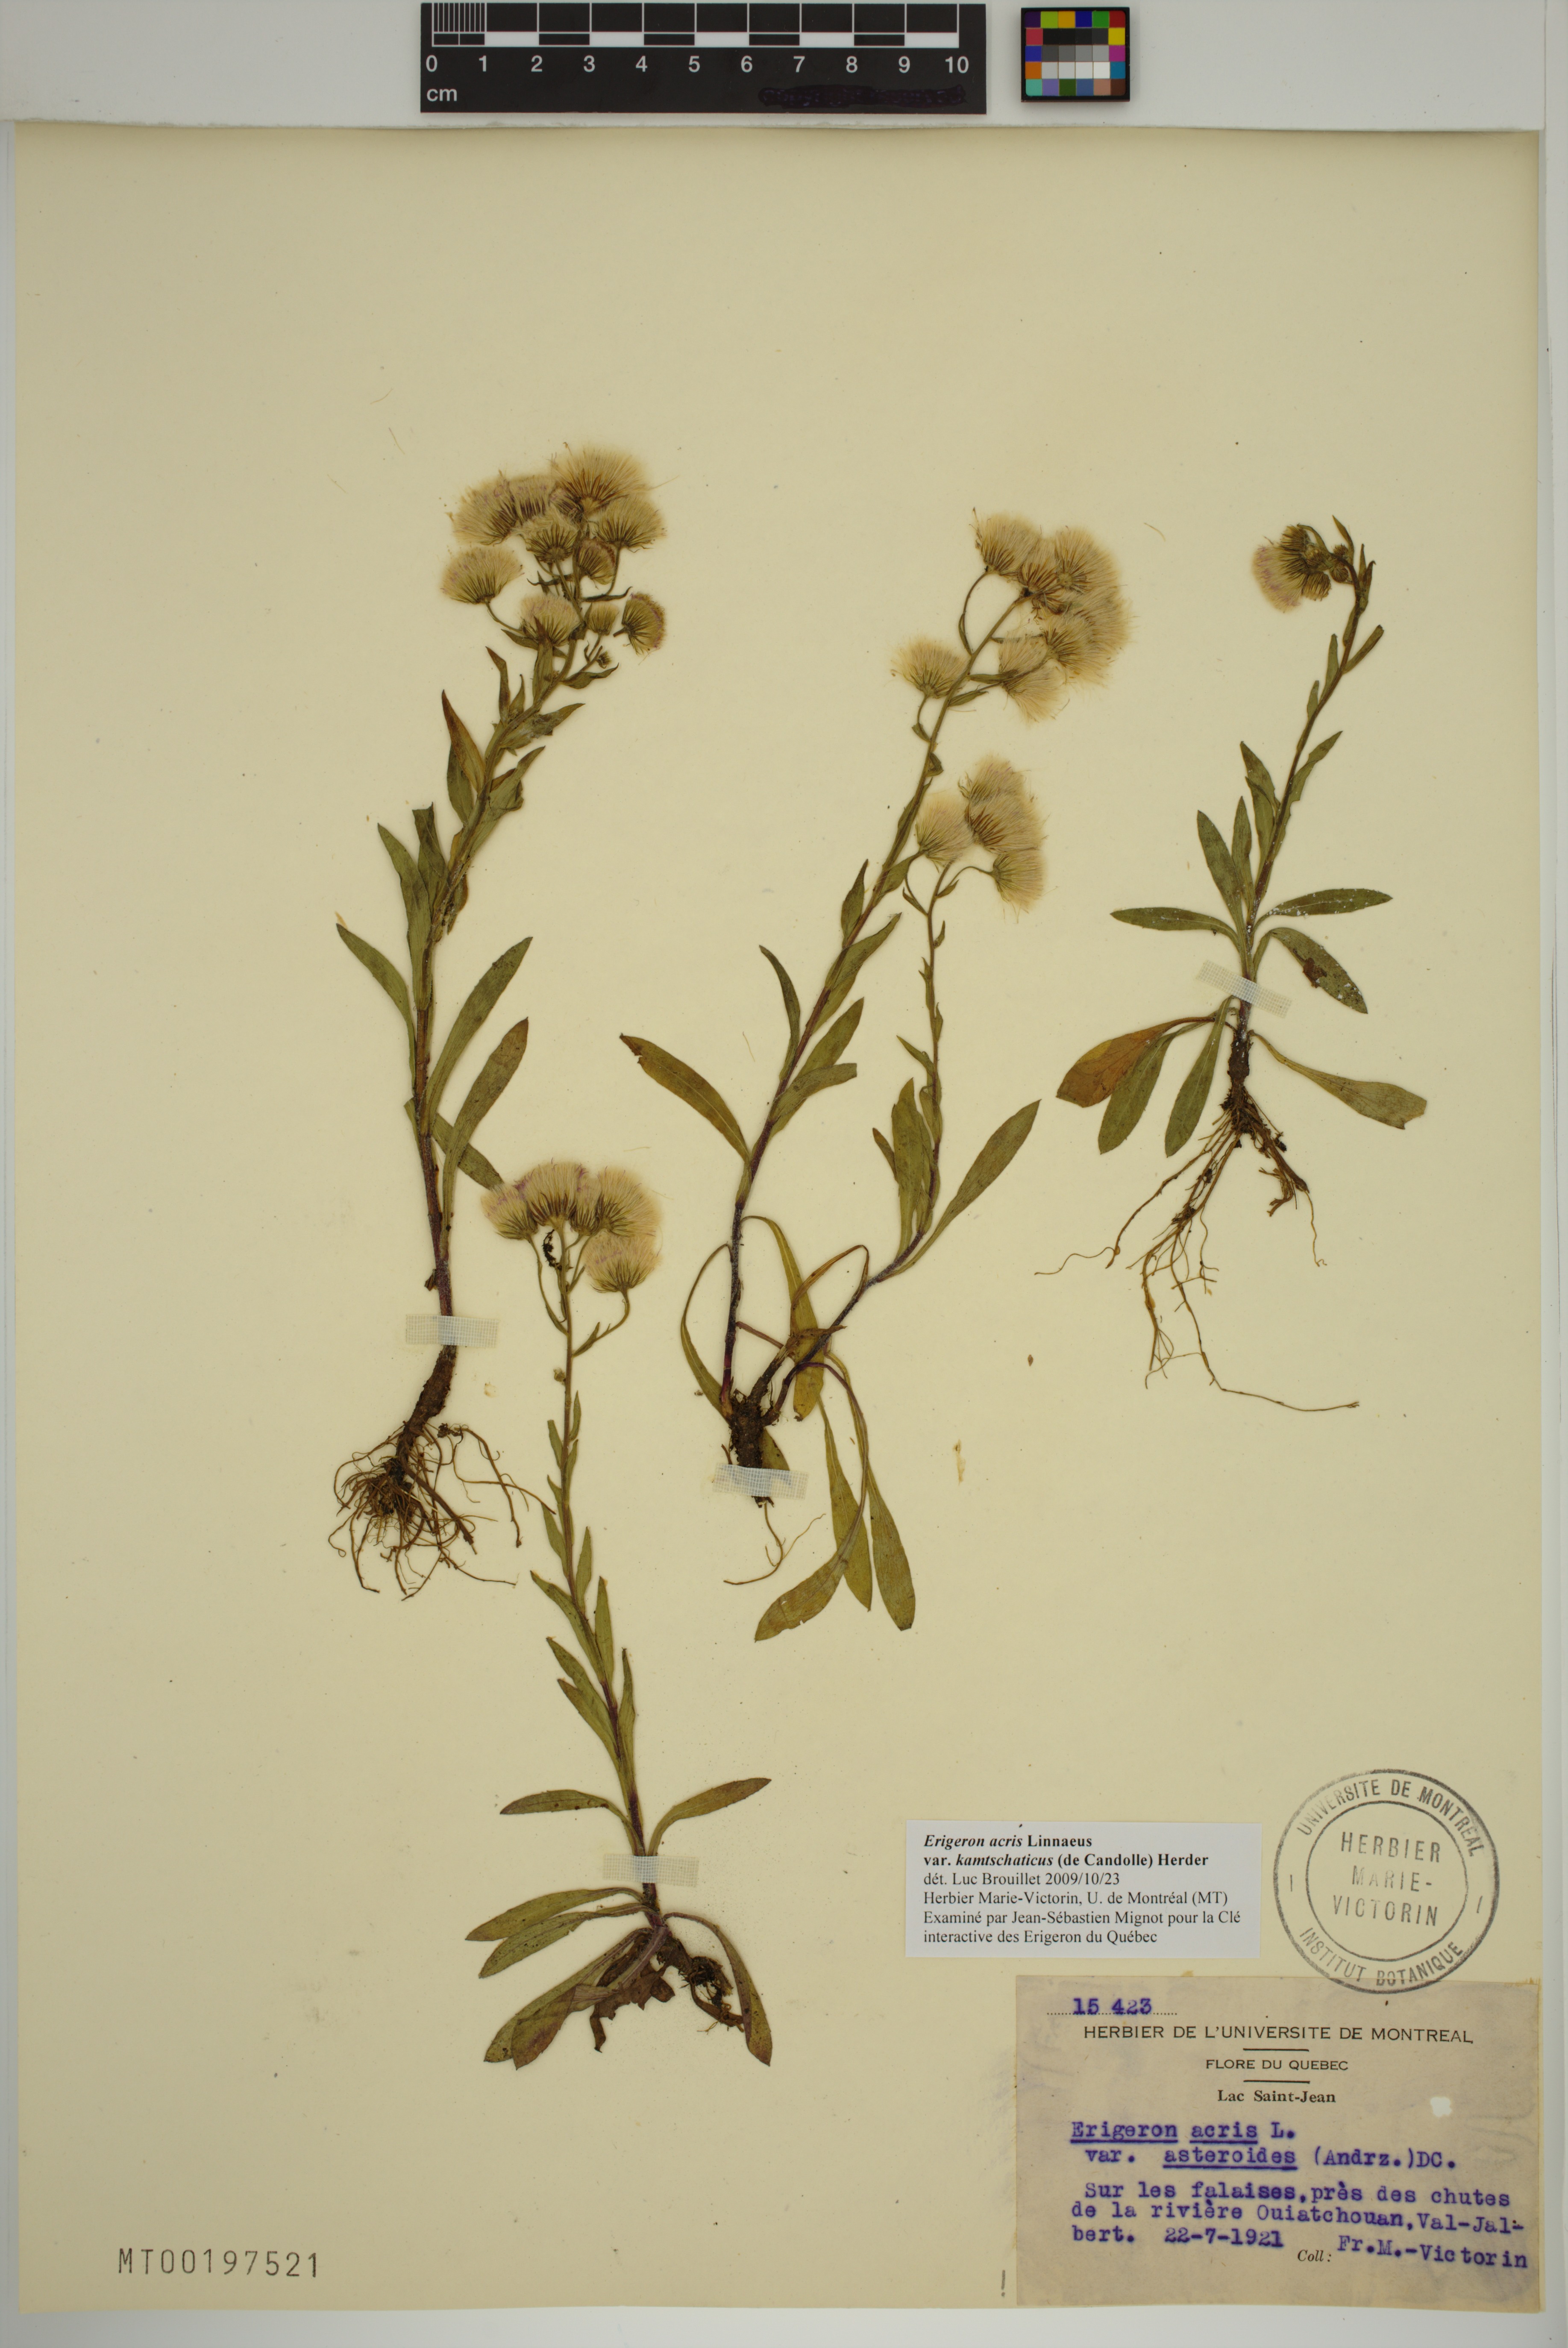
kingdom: Plantae
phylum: Tracheophyta
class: Magnoliopsida
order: Asterales
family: Asteraceae
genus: Erigeron
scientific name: Erigeron kamtschaticus
